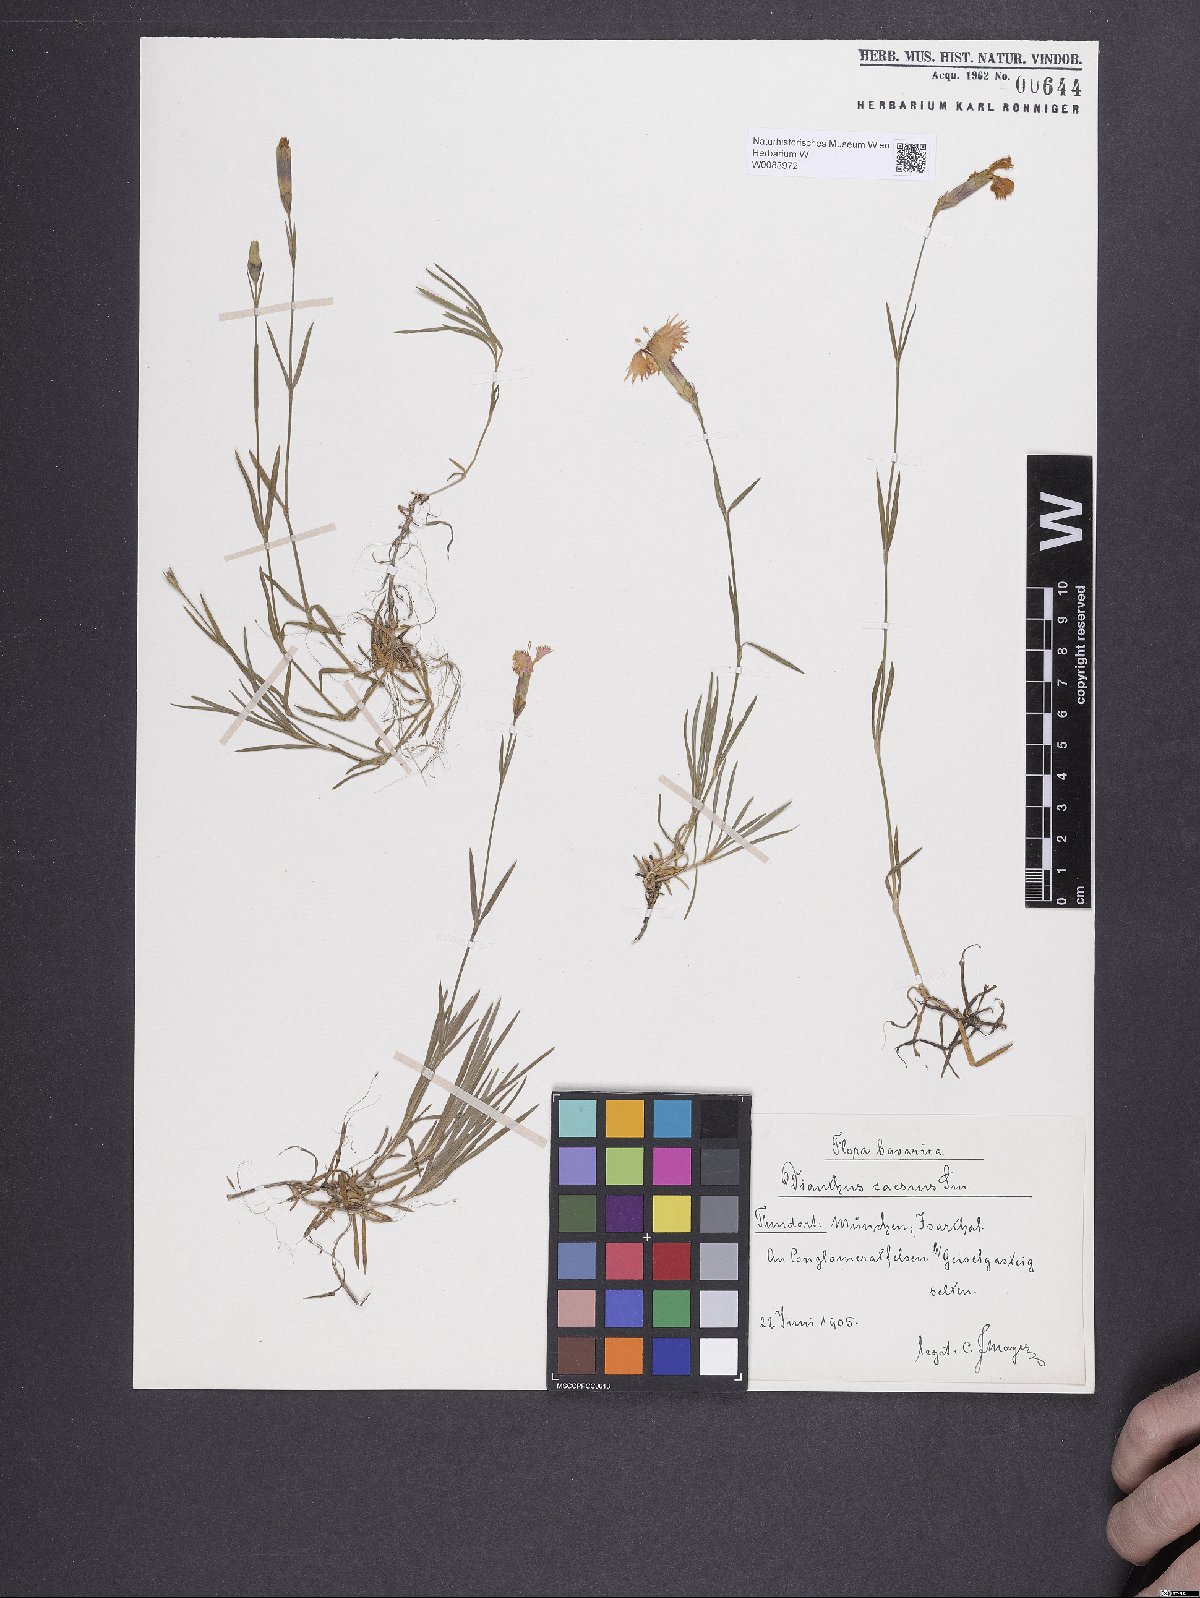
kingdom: Plantae
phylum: Tracheophyta
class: Magnoliopsida
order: Caryophyllales
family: Caryophyllaceae
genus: Dianthus
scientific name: Dianthus gratianopolitanus
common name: Cheddar pink
